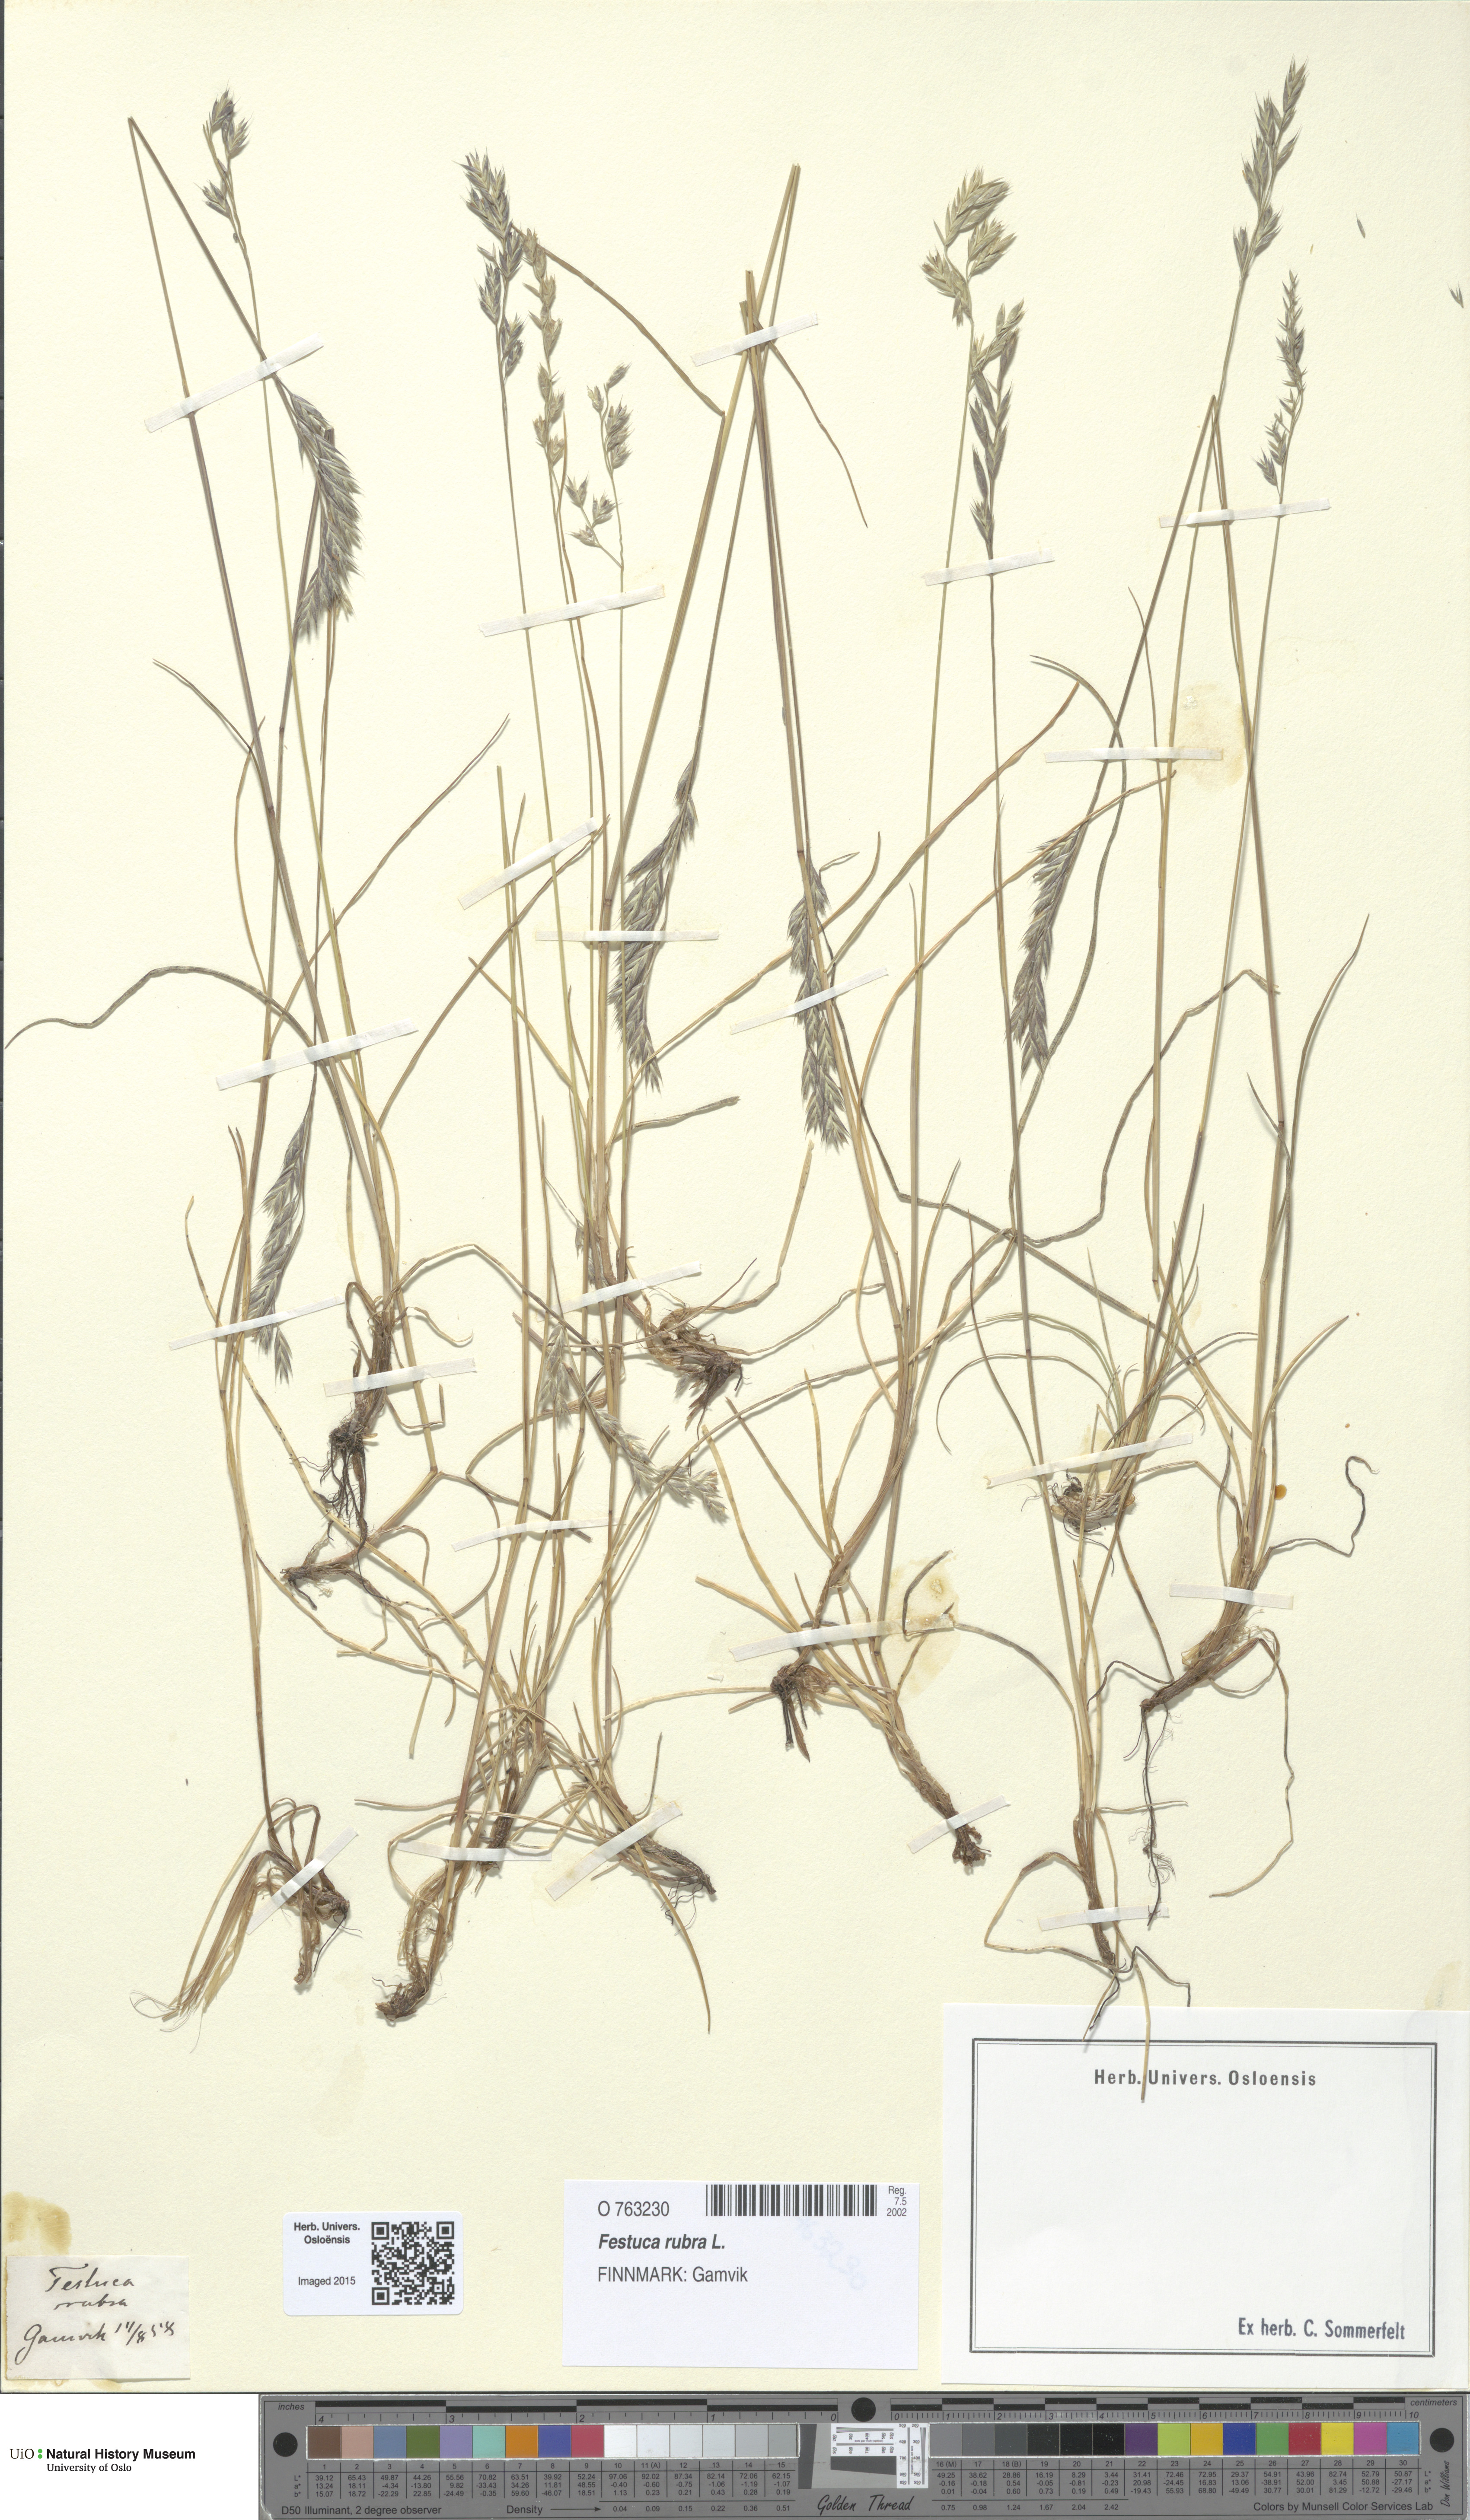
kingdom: Plantae
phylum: Tracheophyta
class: Liliopsida
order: Poales
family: Poaceae
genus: Festuca
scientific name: Festuca rubra
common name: Red fescue
